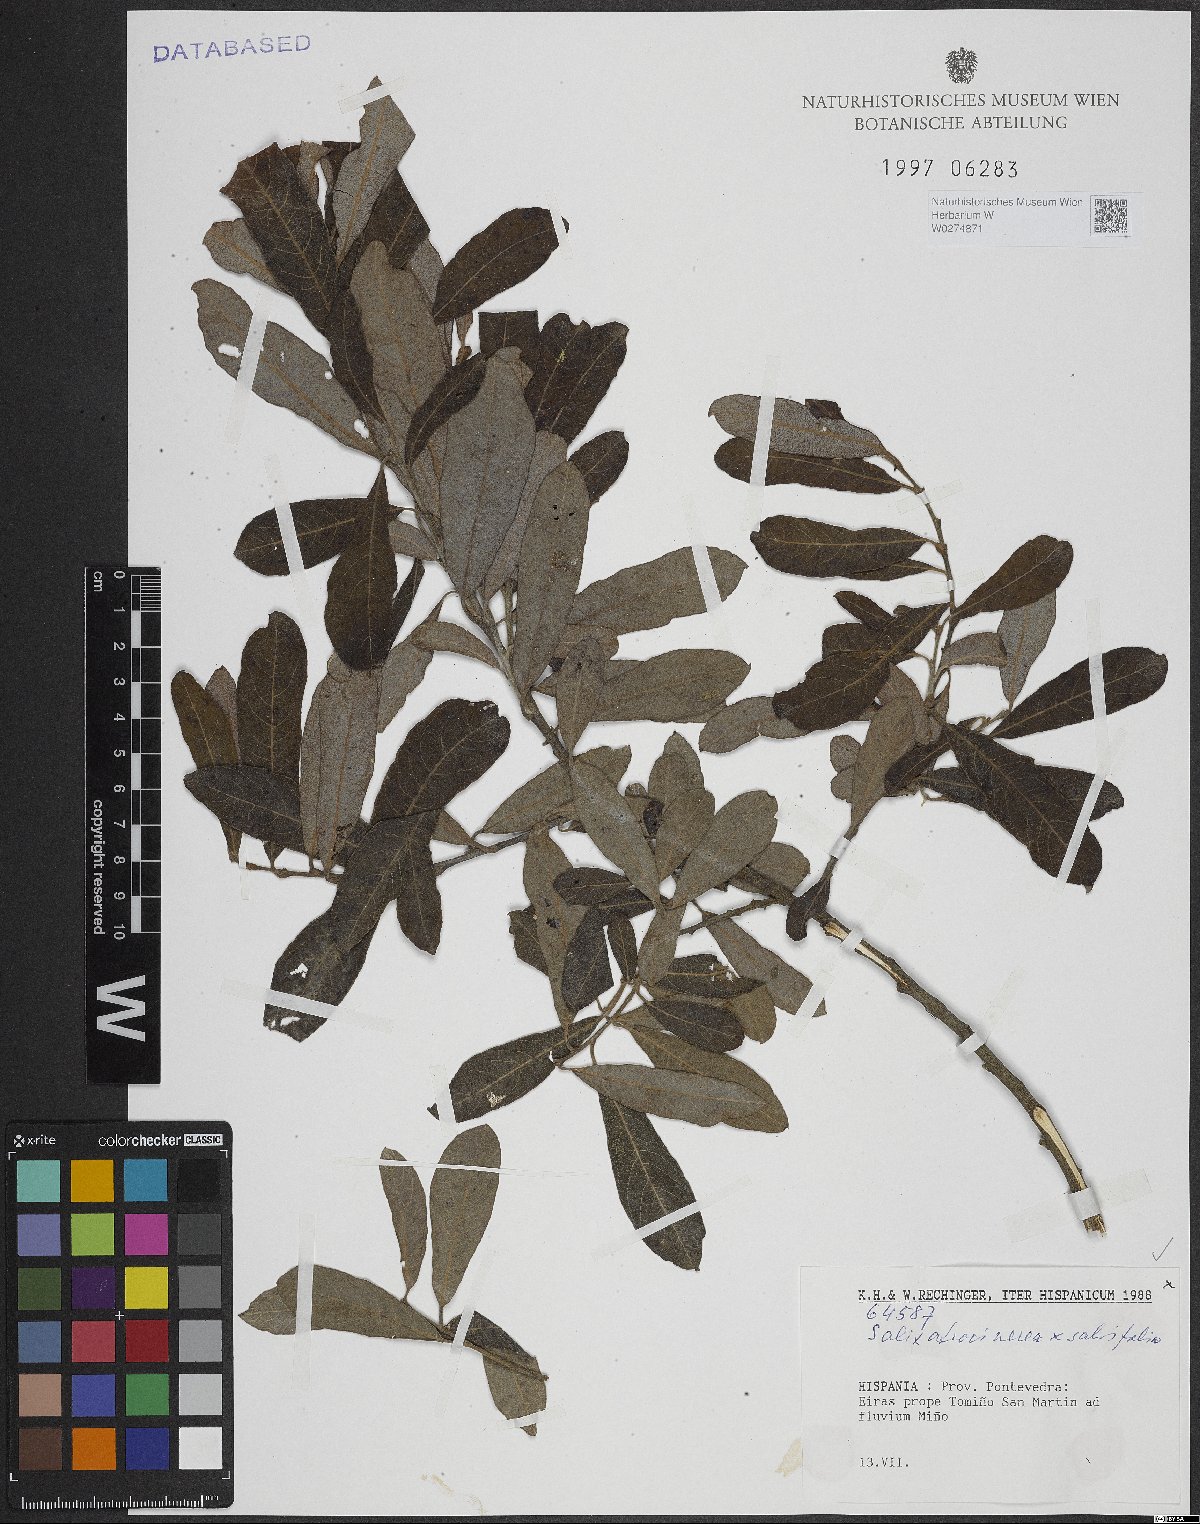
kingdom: Plantae
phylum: Tracheophyta
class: Magnoliopsida
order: Malpighiales
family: Salicaceae
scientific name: Salicaceae
